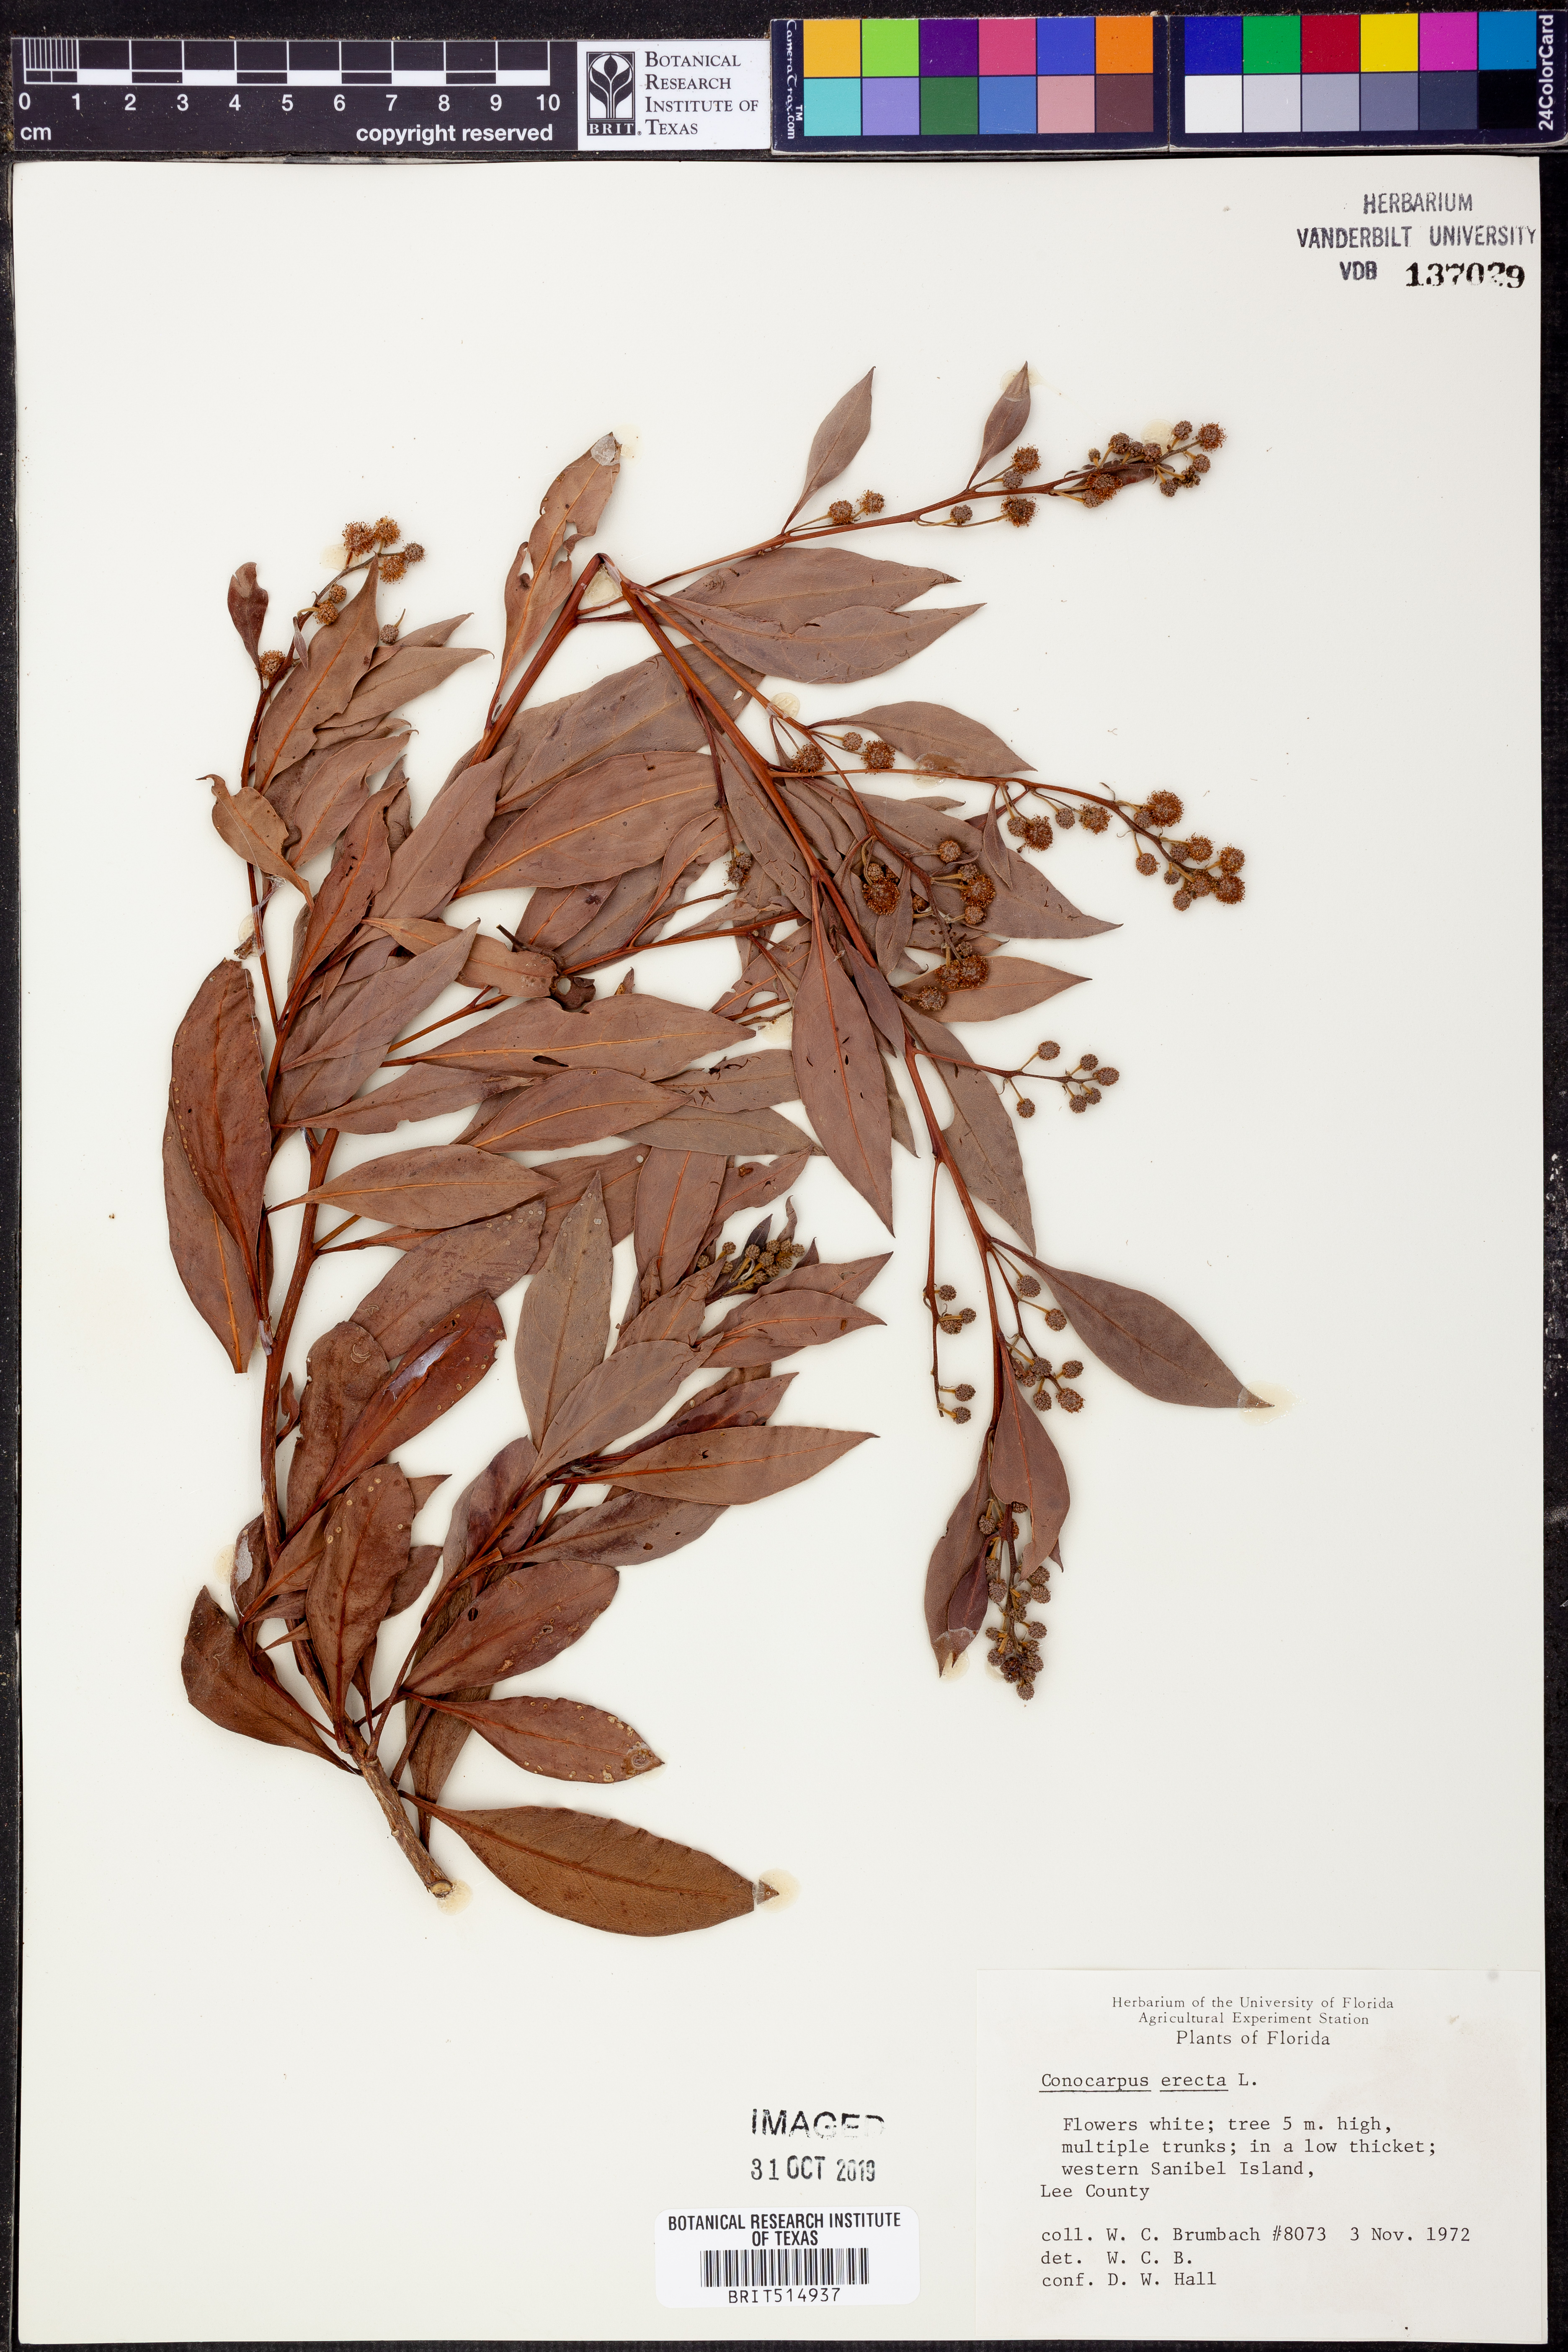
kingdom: Plantae
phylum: Tracheophyta
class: Magnoliopsida
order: Myrtales
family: Combretaceae
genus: Conocarpus
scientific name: Conocarpus erectus
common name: Button mangrove
